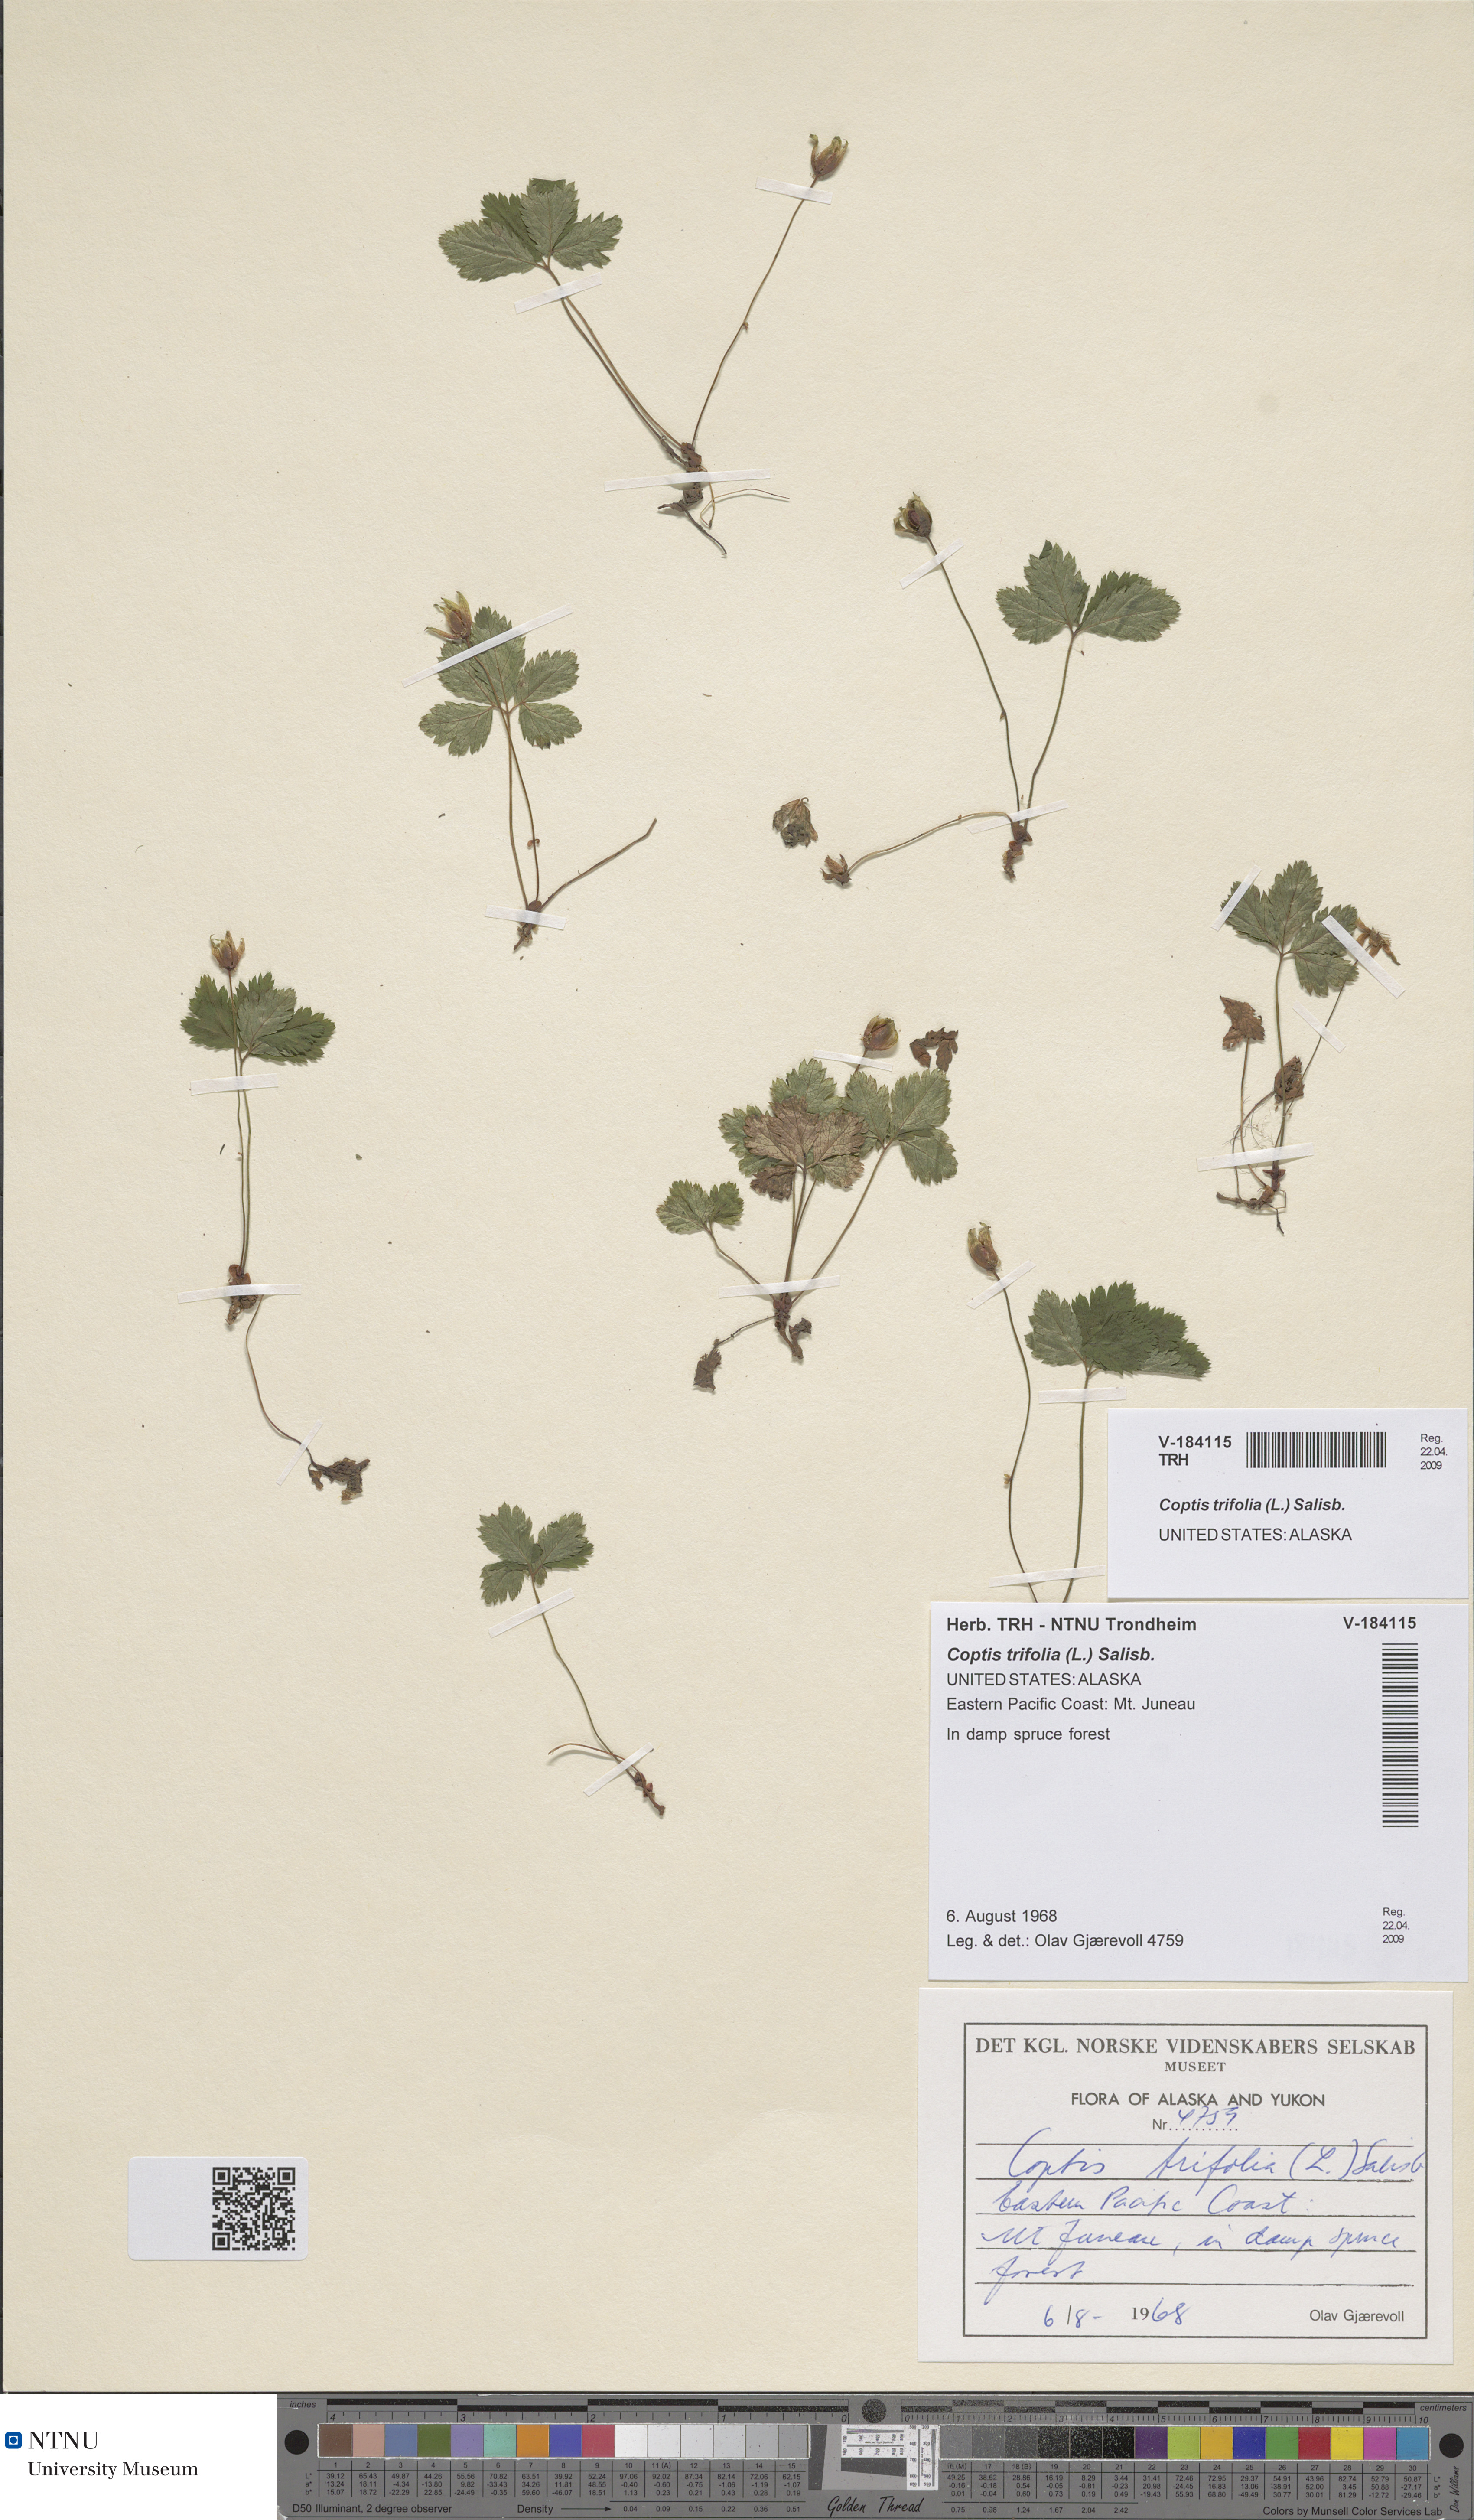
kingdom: Plantae
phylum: Tracheophyta
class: Magnoliopsida
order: Ranunculales
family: Ranunculaceae
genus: Coptis
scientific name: Coptis trifolia
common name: Canker-root
